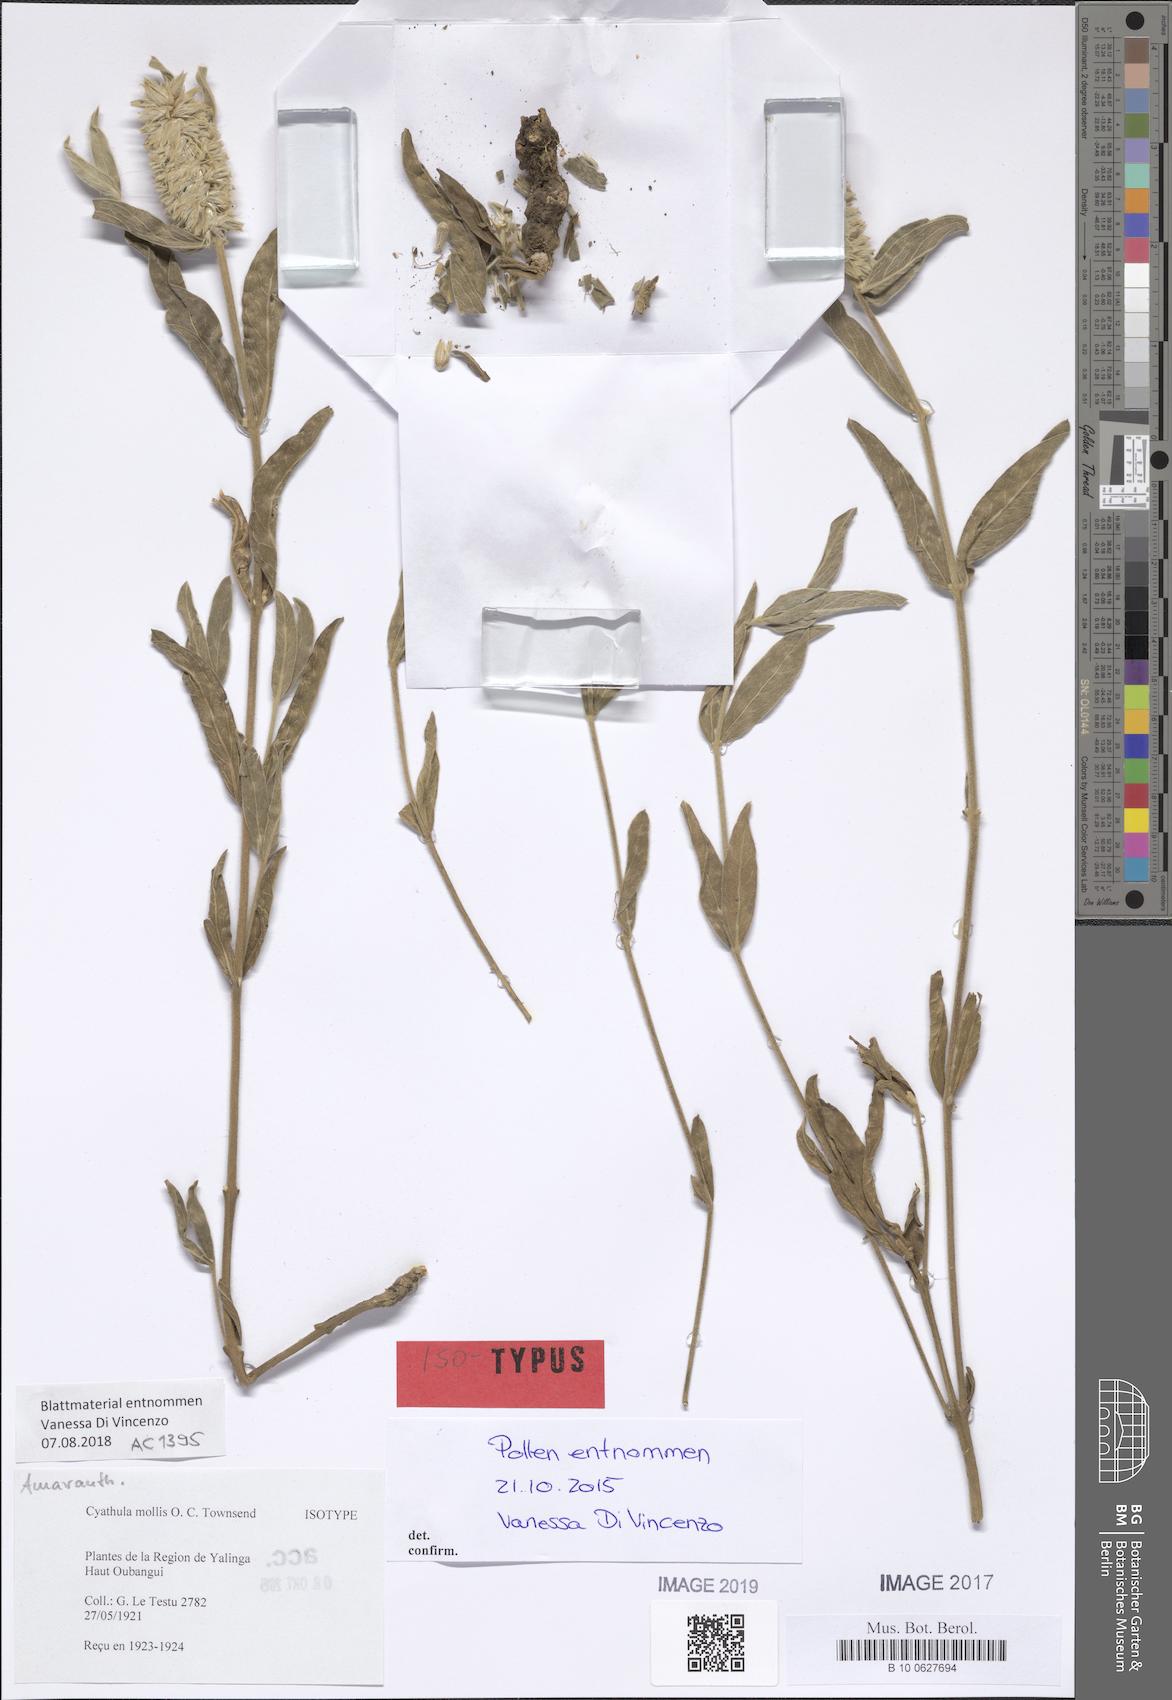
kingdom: Plantae
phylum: Tracheophyta
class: Magnoliopsida
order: Caryophyllales
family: Amaranthaceae
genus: Cyathula
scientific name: Cyathula mollis
